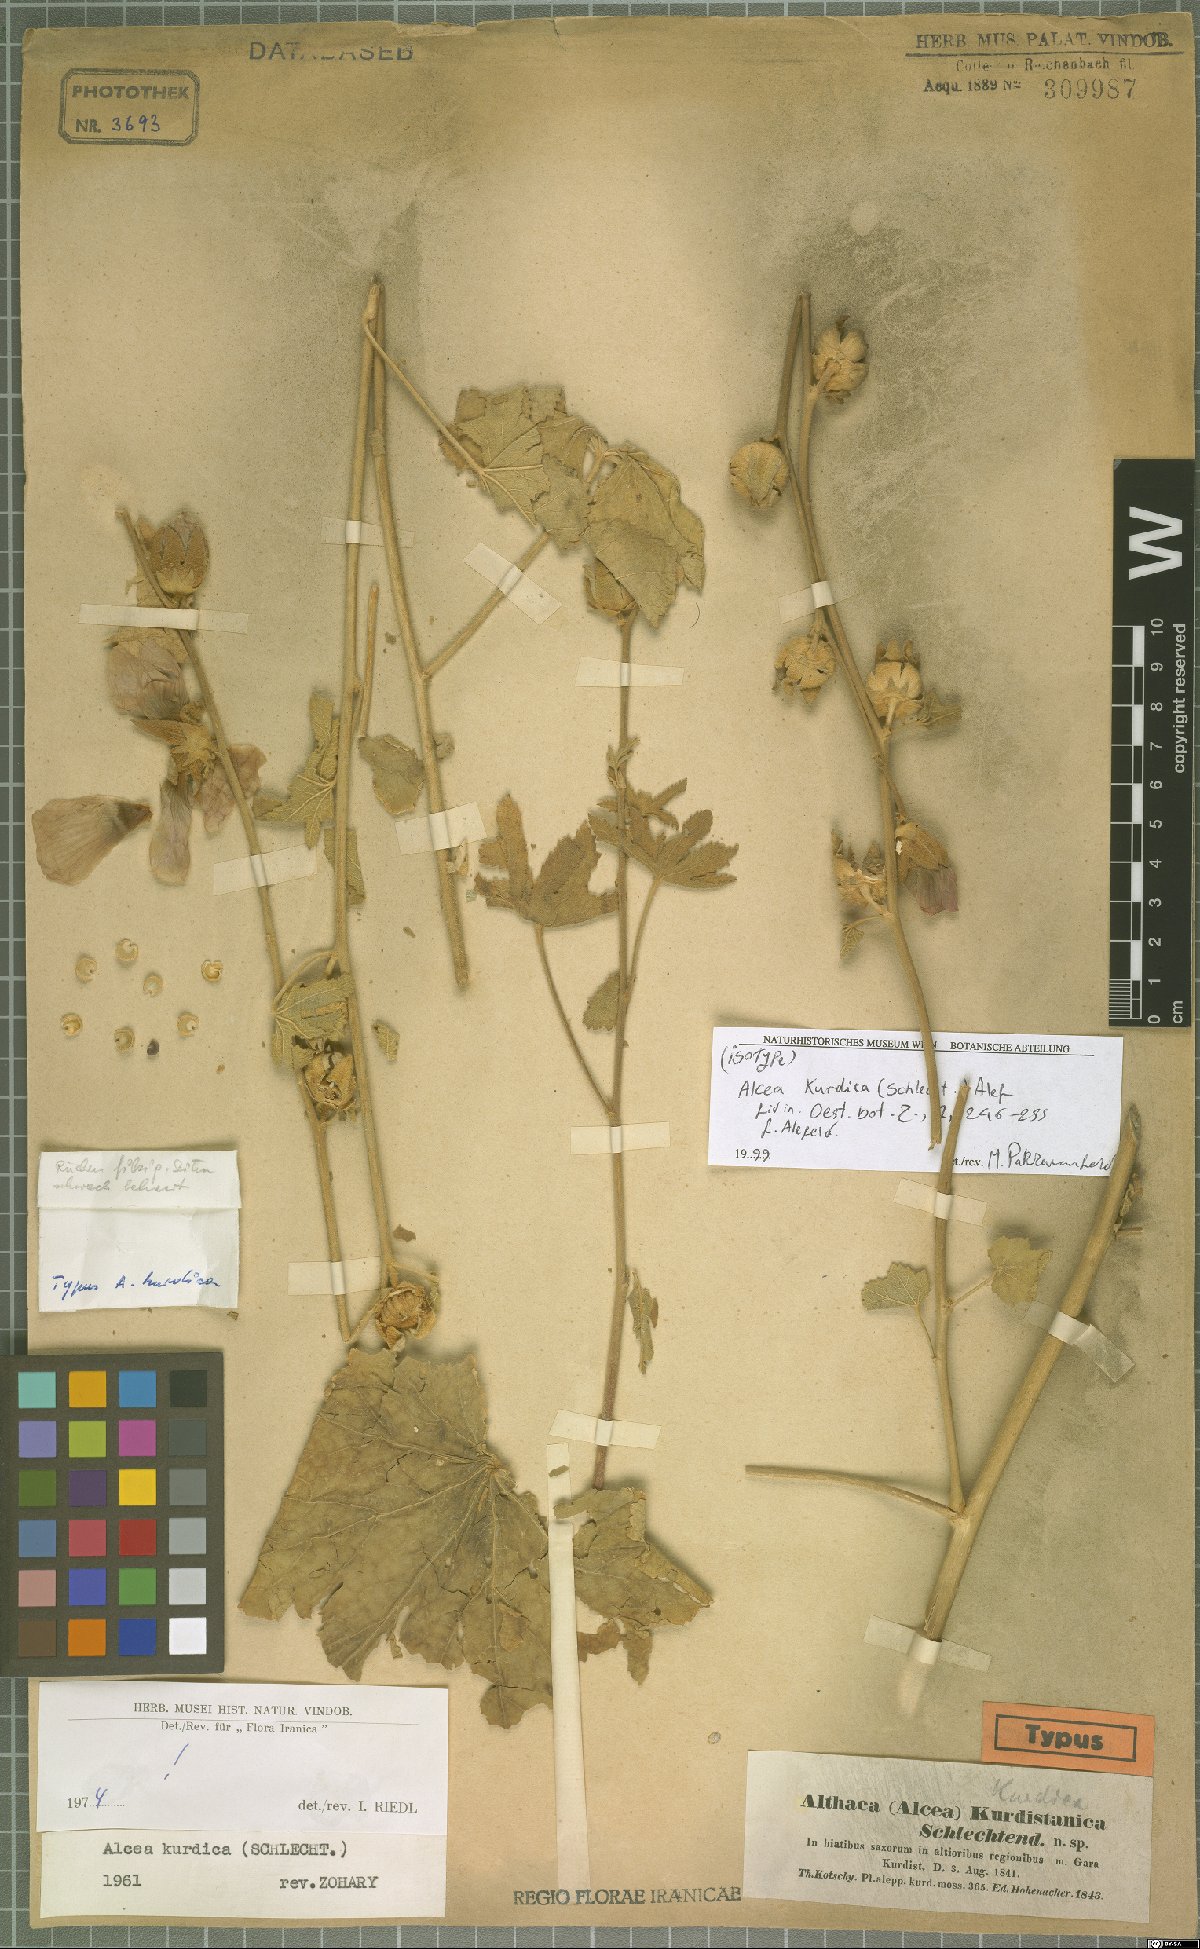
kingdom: Plantae
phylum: Tracheophyta
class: Magnoliopsida
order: Malvales
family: Malvaceae
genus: Alcea
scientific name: Alcea kurdica
